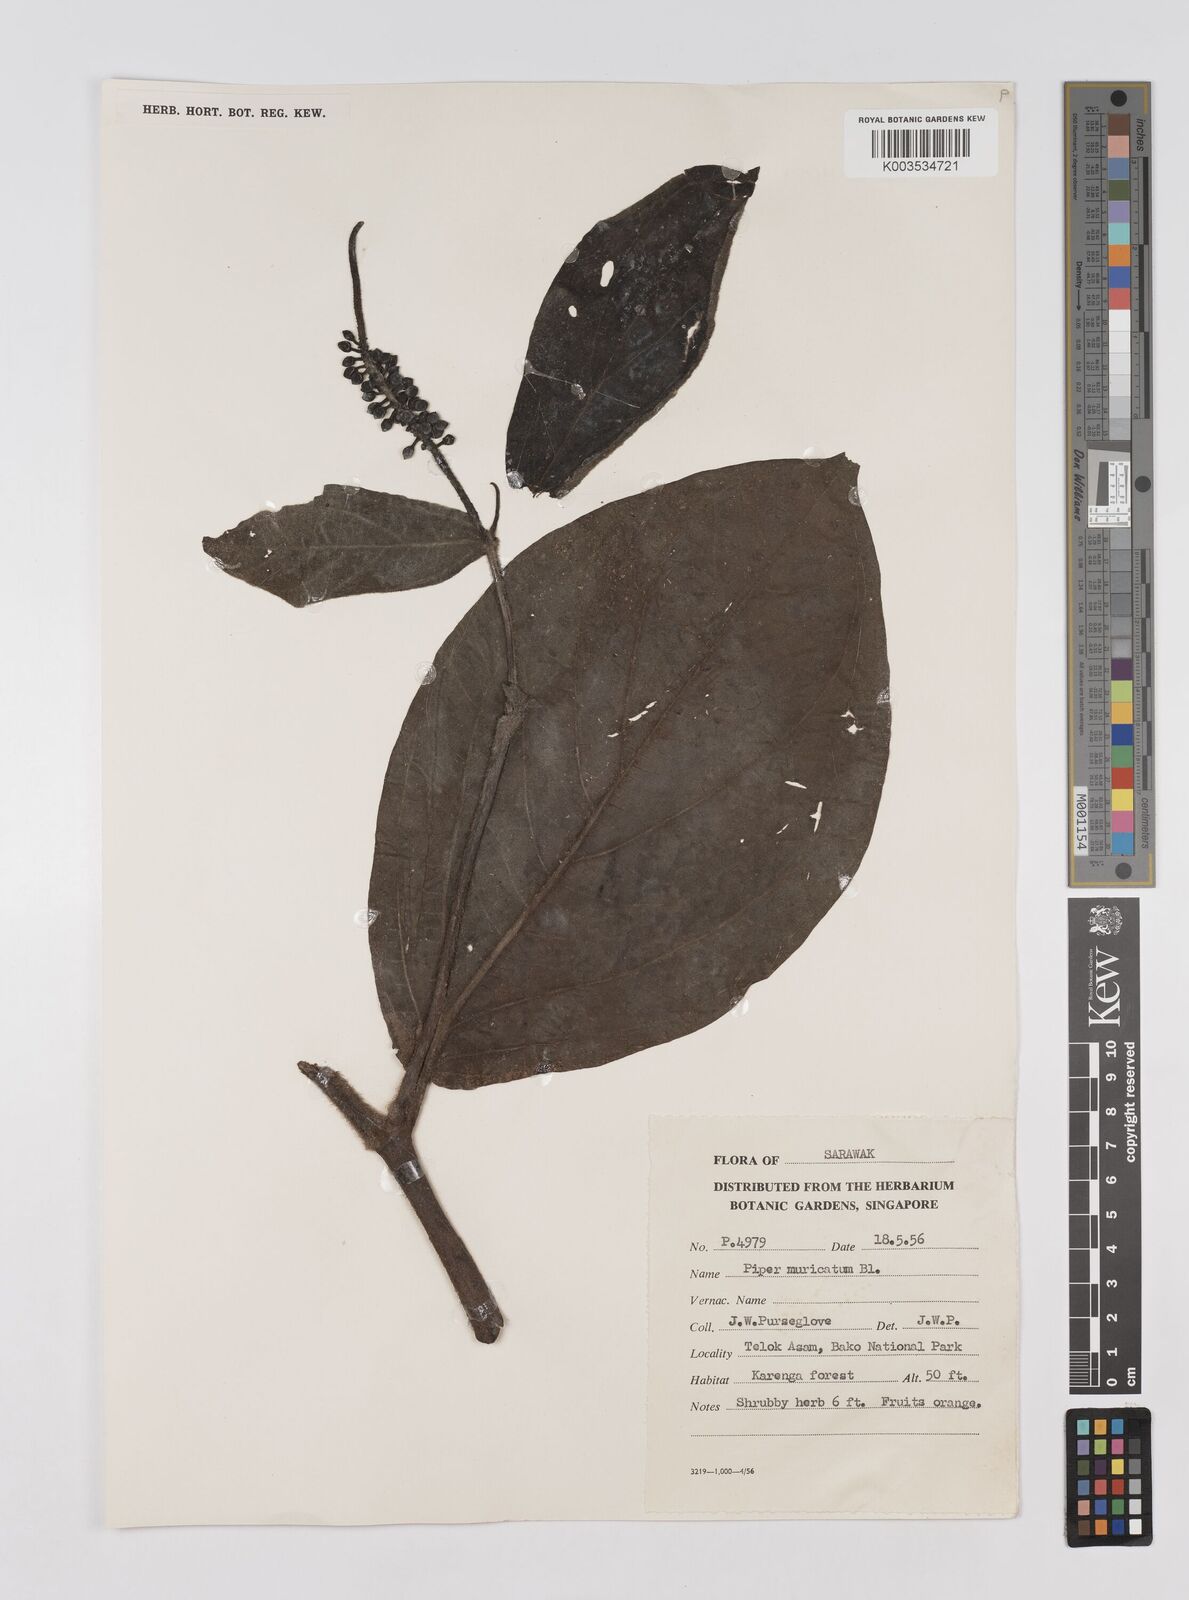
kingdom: Plantae
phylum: Tracheophyta
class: Magnoliopsida
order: Piperales
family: Piperaceae
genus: Piper
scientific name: Piper muricatum
